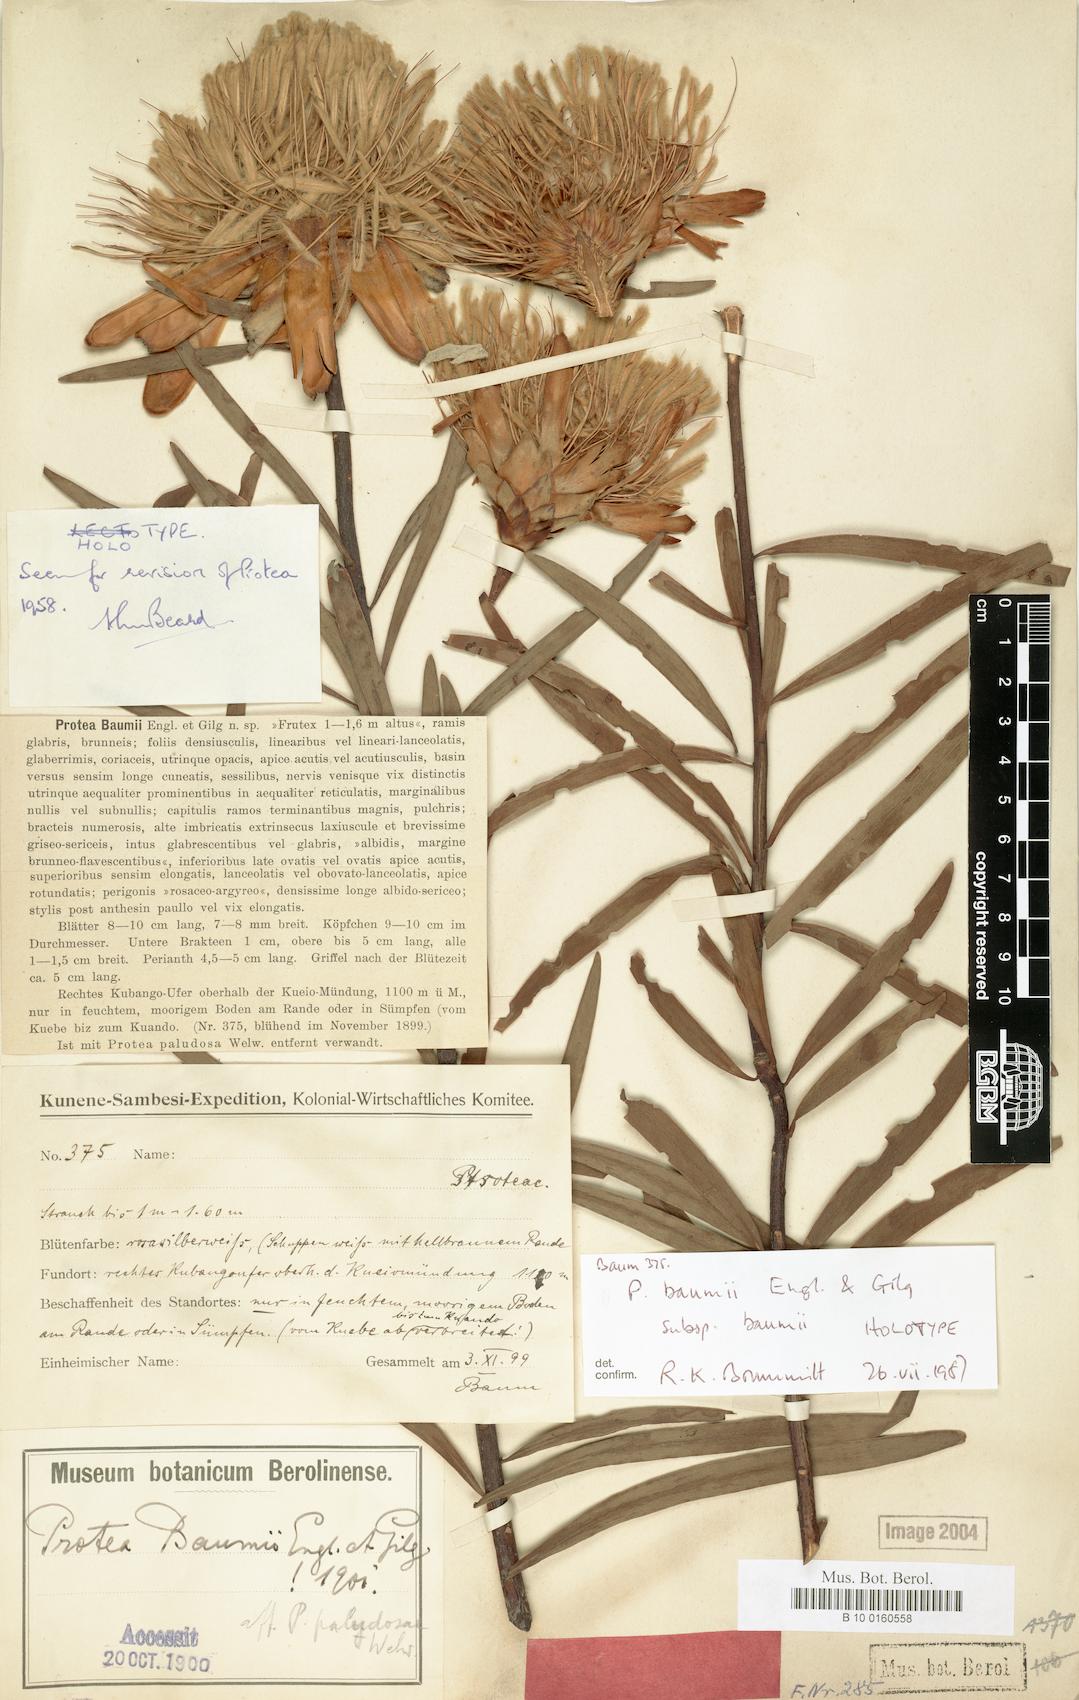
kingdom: Plantae
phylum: Tracheophyta
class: Magnoliopsida
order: Proteales
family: Proteaceae
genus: Protea
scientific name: Protea baumii
